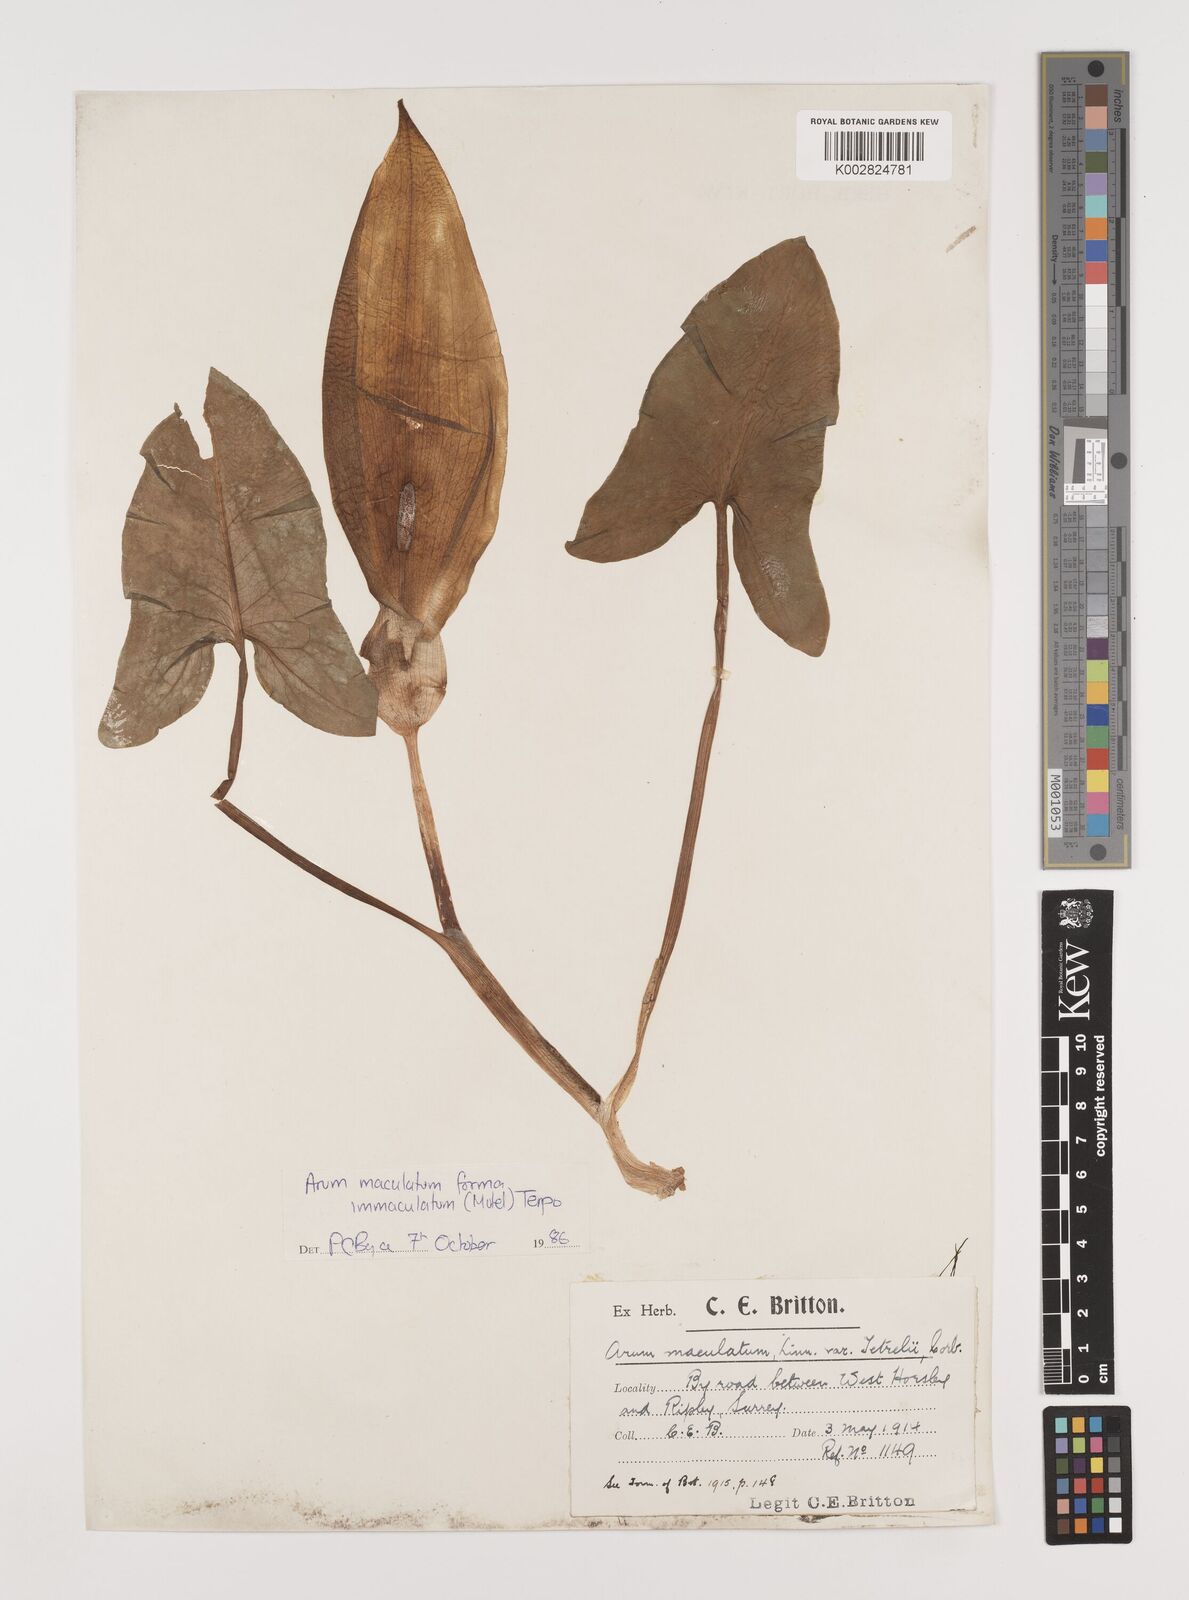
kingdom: Plantae
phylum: Tracheophyta
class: Liliopsida
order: Alismatales
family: Araceae
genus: Arum
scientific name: Arum maculatum
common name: Lords-and-ladies
